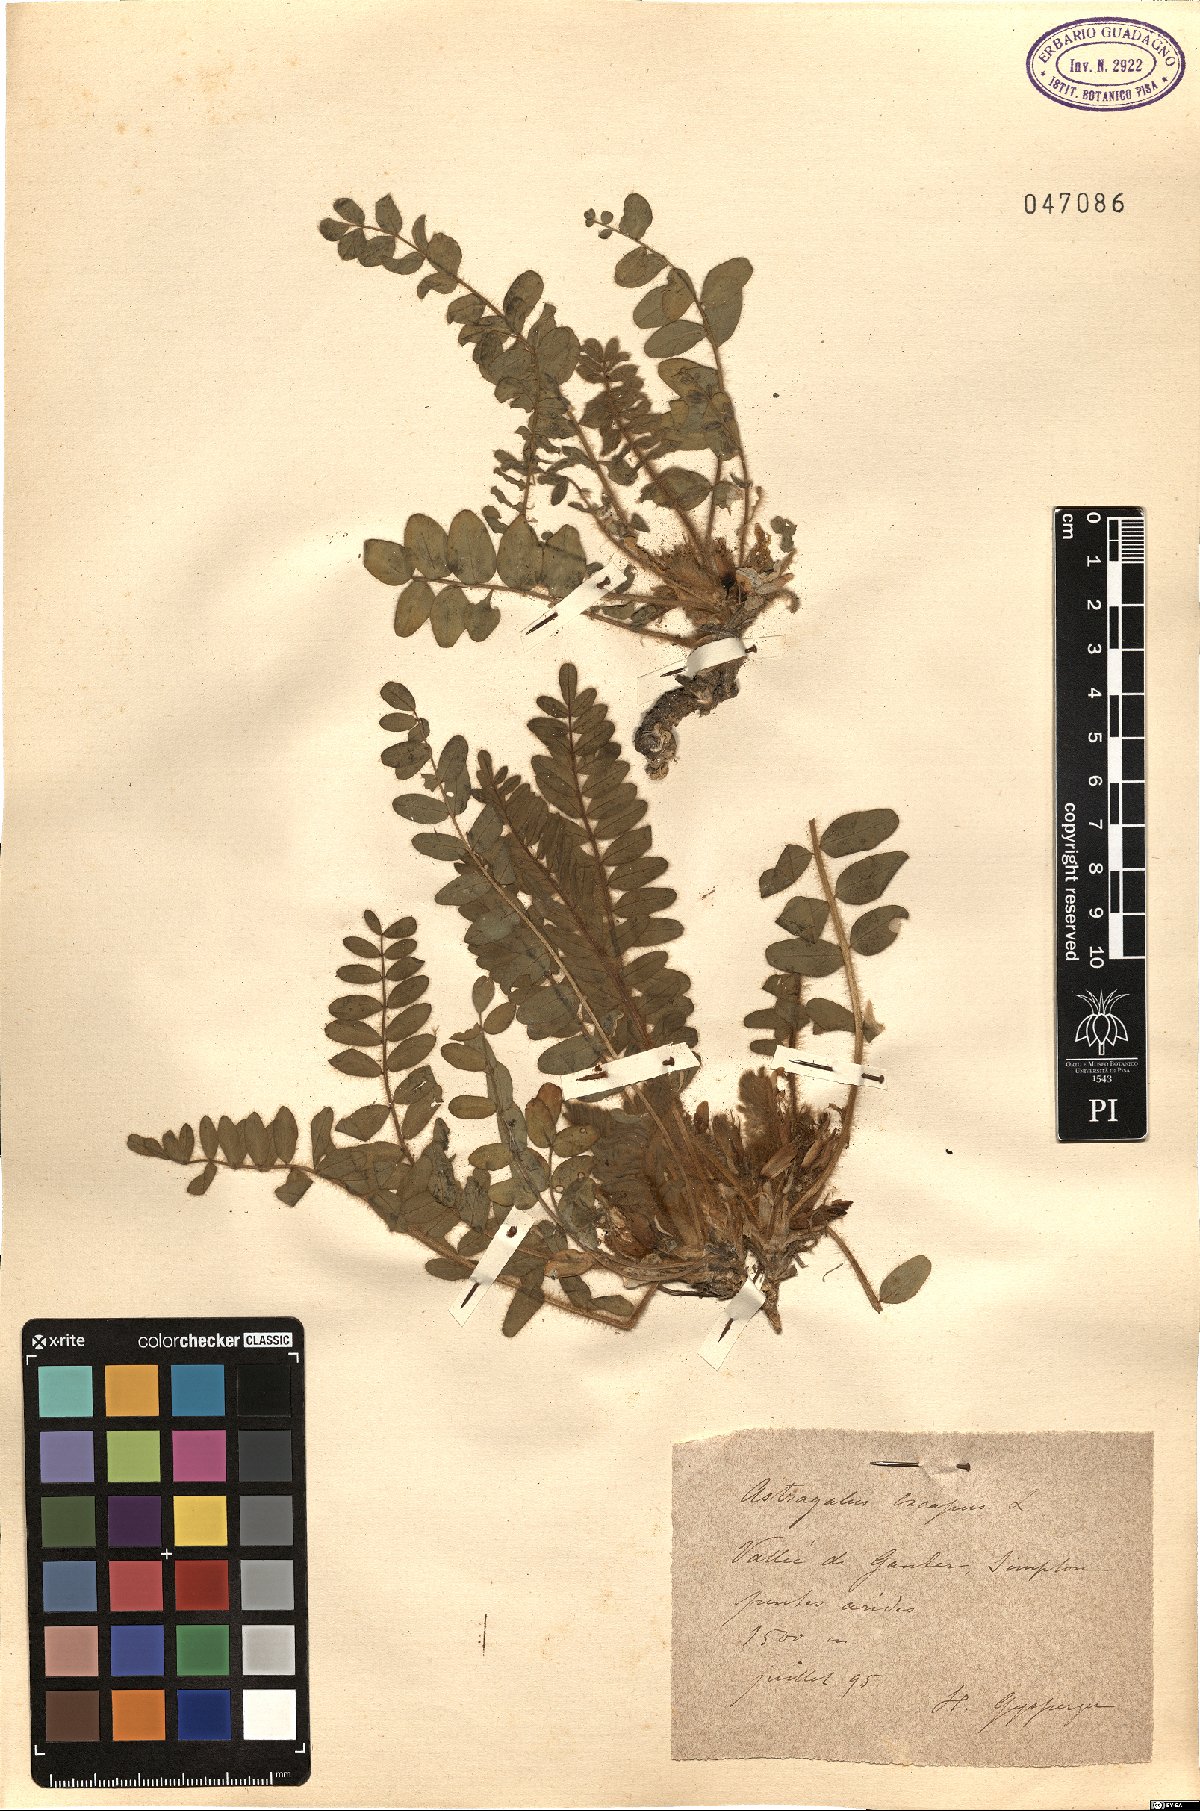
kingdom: Plantae
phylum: Tracheophyta
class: Magnoliopsida
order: Fabales
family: Fabaceae
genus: Astragalus
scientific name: Astragalus exscapus
